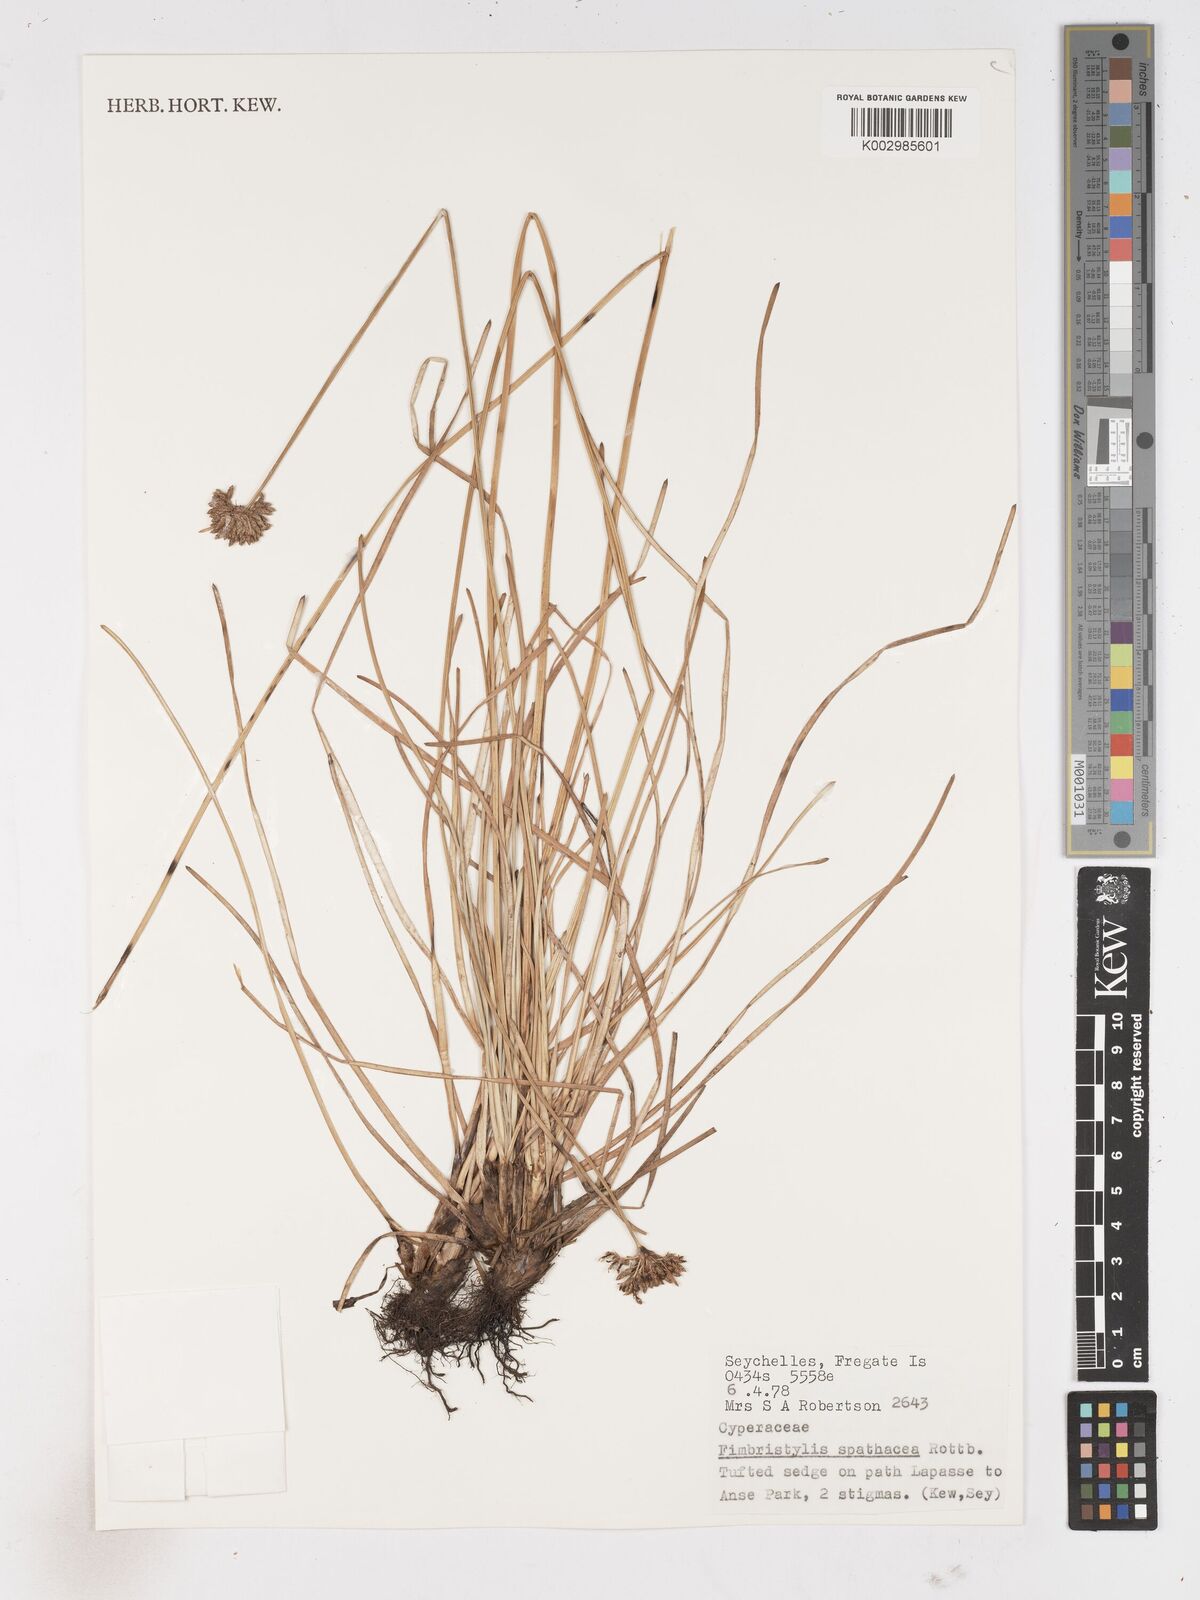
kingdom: Plantae
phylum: Tracheophyta
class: Liliopsida
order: Poales
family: Cyperaceae
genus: Fimbristylis
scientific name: Fimbristylis cymosa
